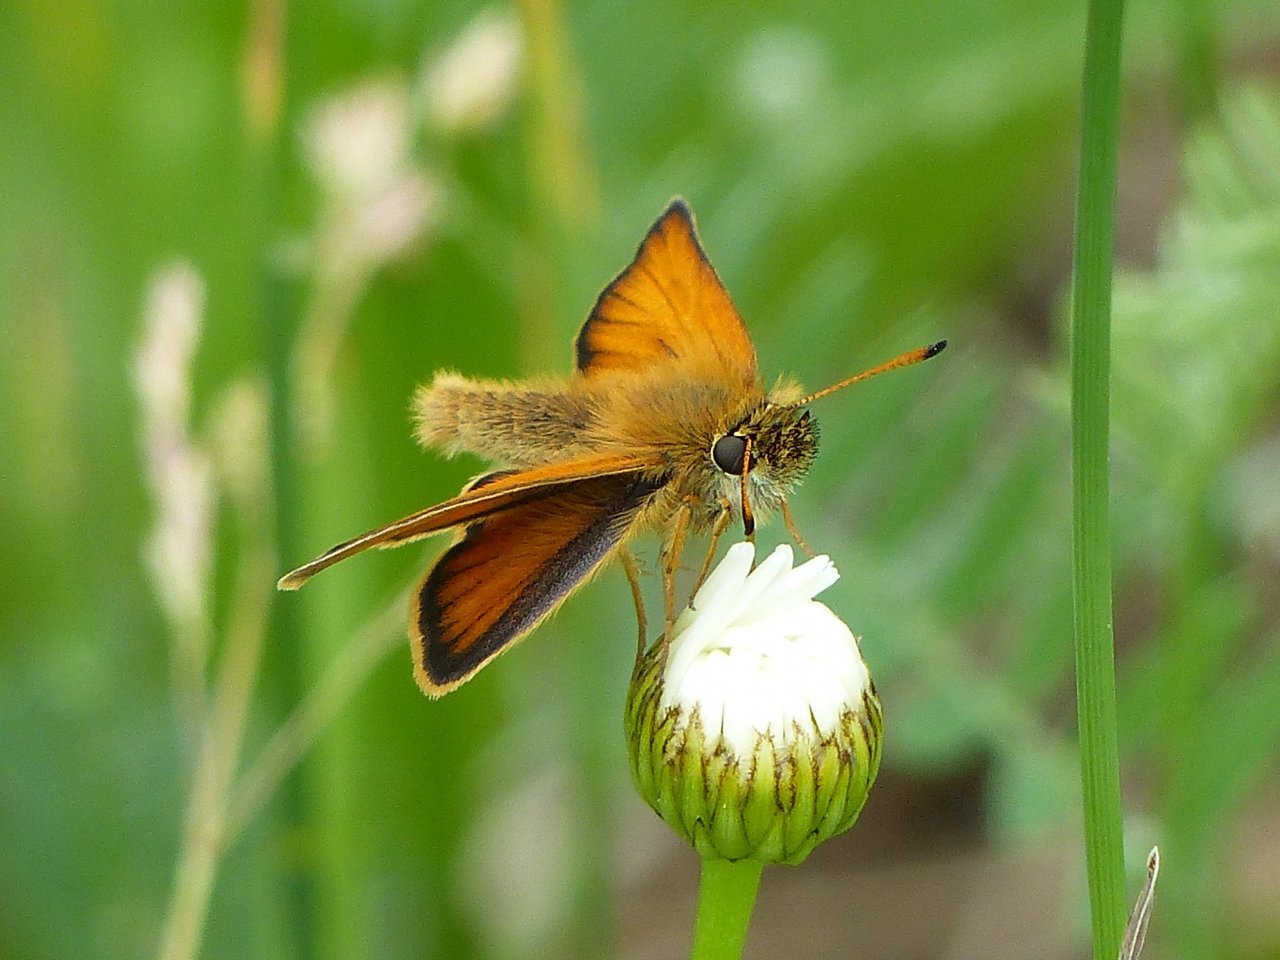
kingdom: Animalia
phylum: Arthropoda
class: Insecta
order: Lepidoptera
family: Hesperiidae
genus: Thymelicus
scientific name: Thymelicus lineola
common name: European Skipper
